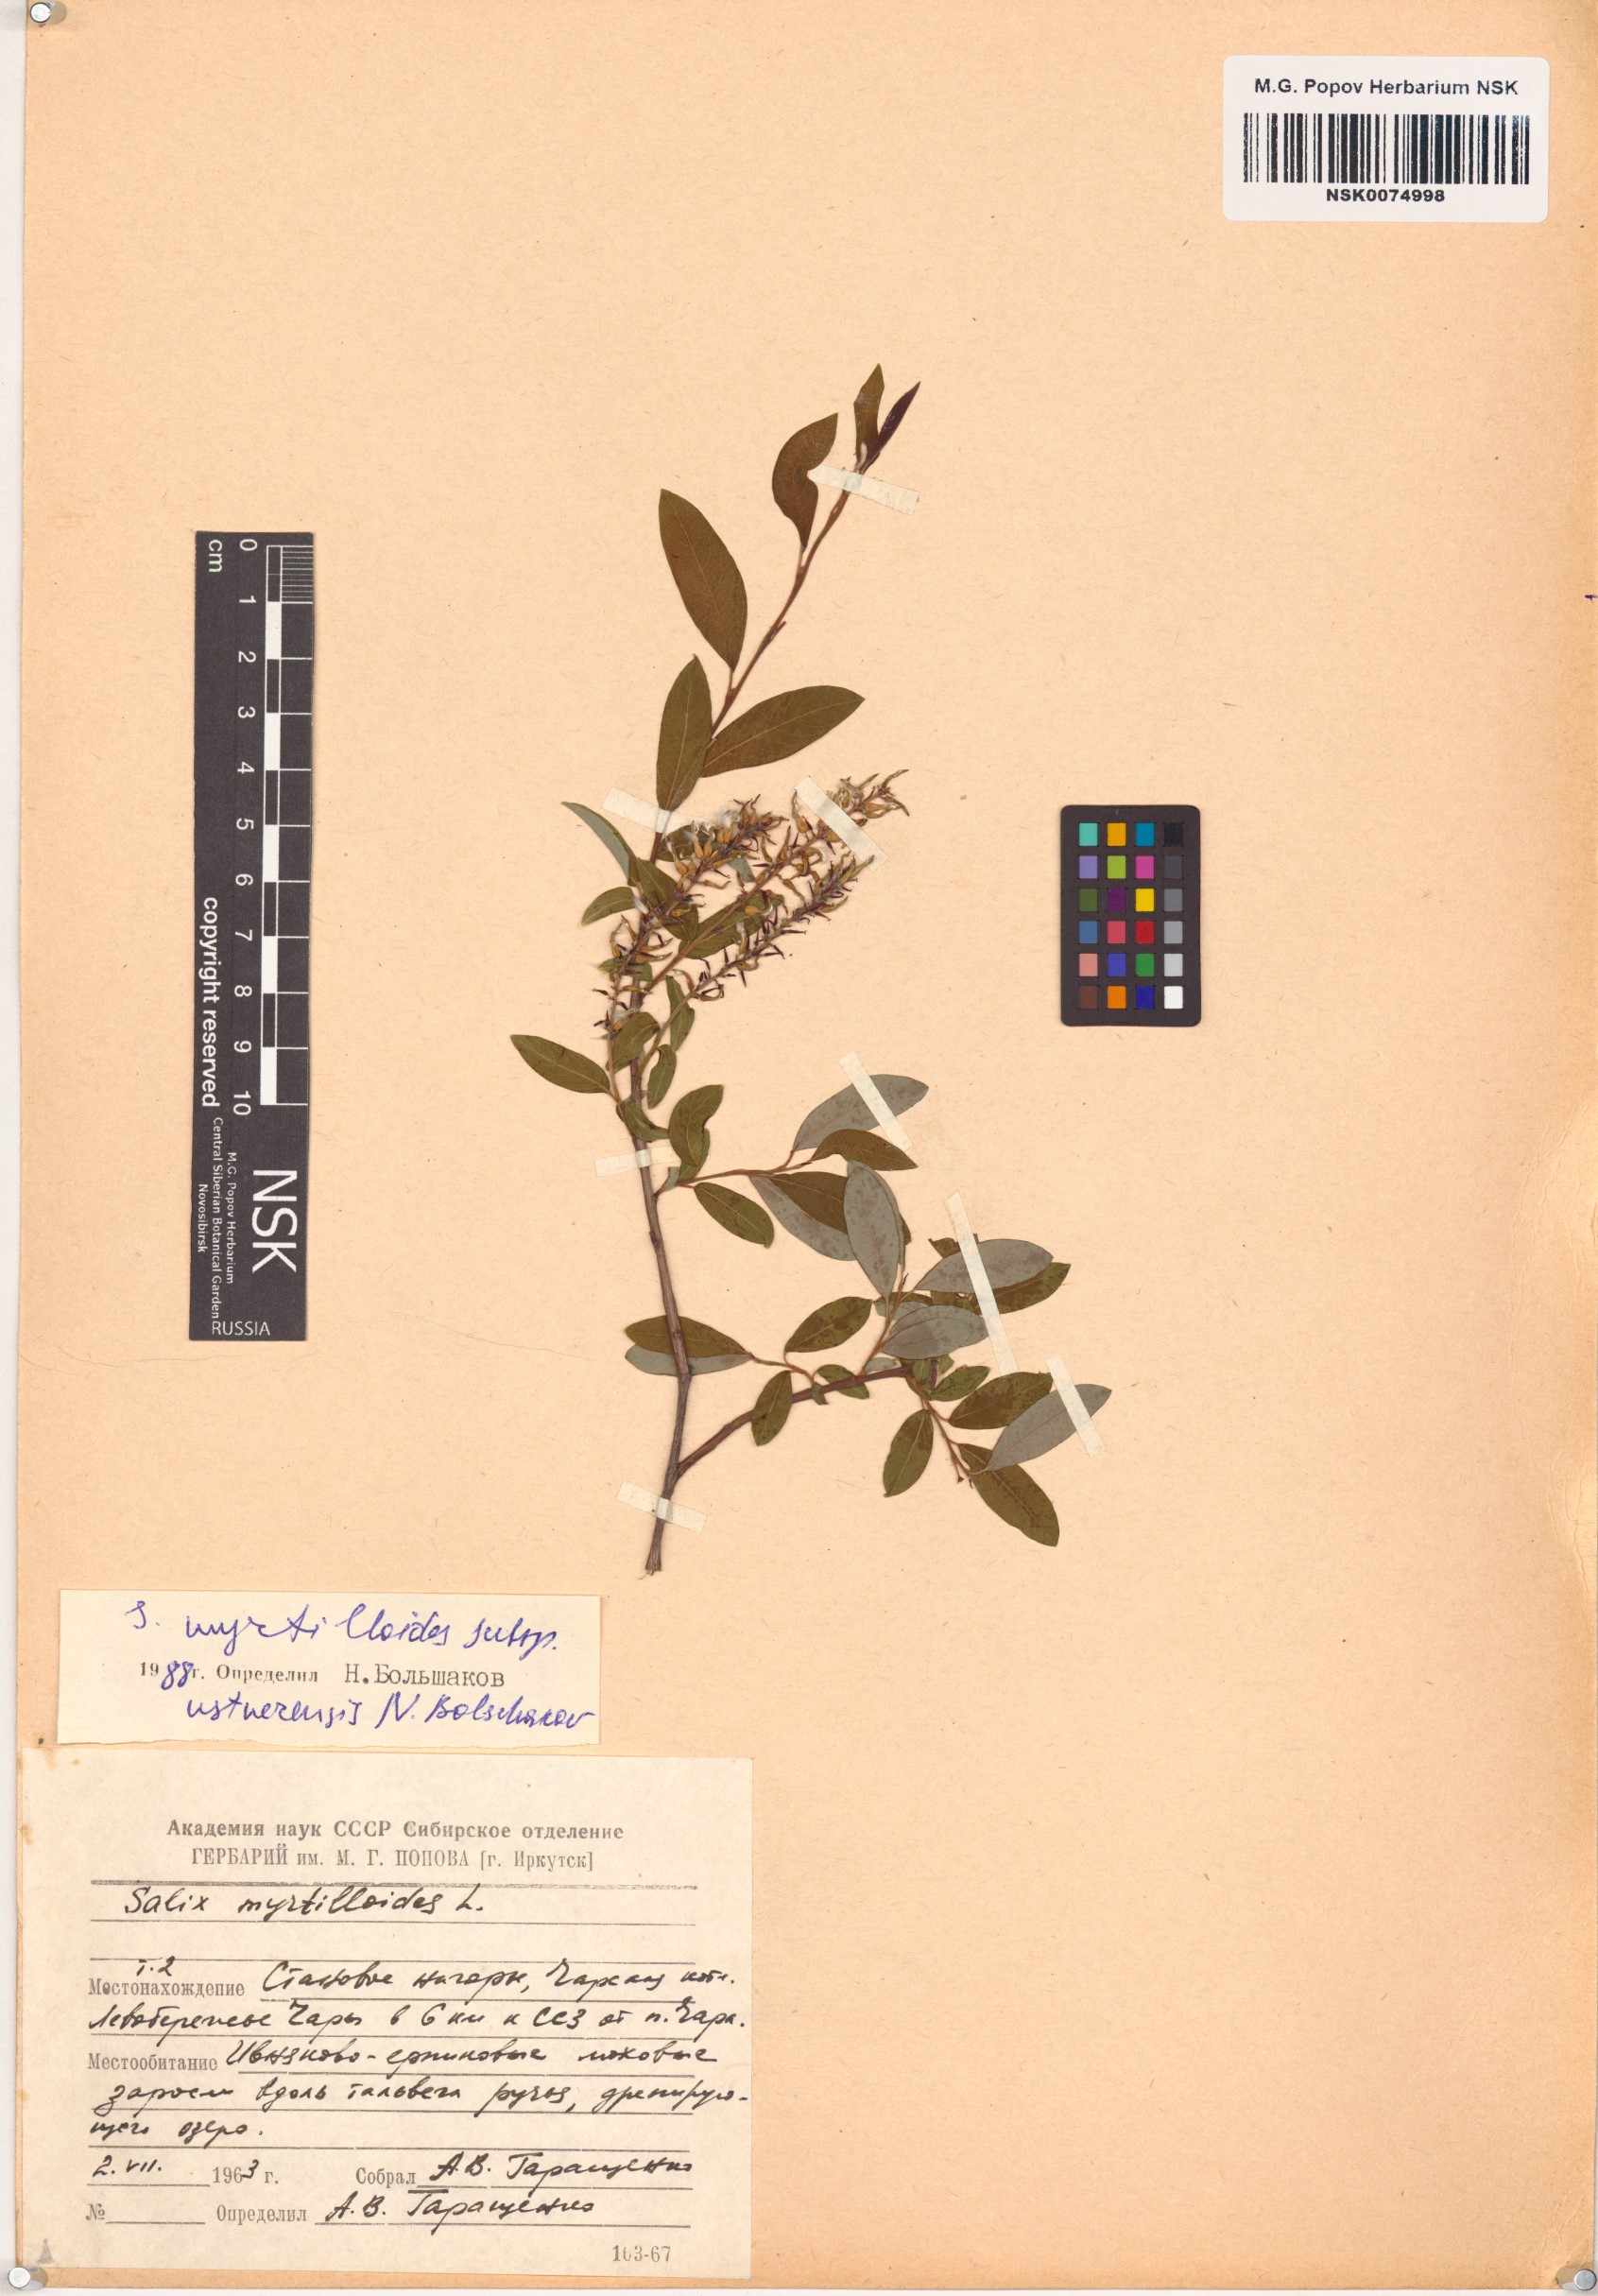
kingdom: Plantae
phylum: Tracheophyta
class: Magnoliopsida
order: Malpighiales
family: Salicaceae
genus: Salix
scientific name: Salix ustnerensis
